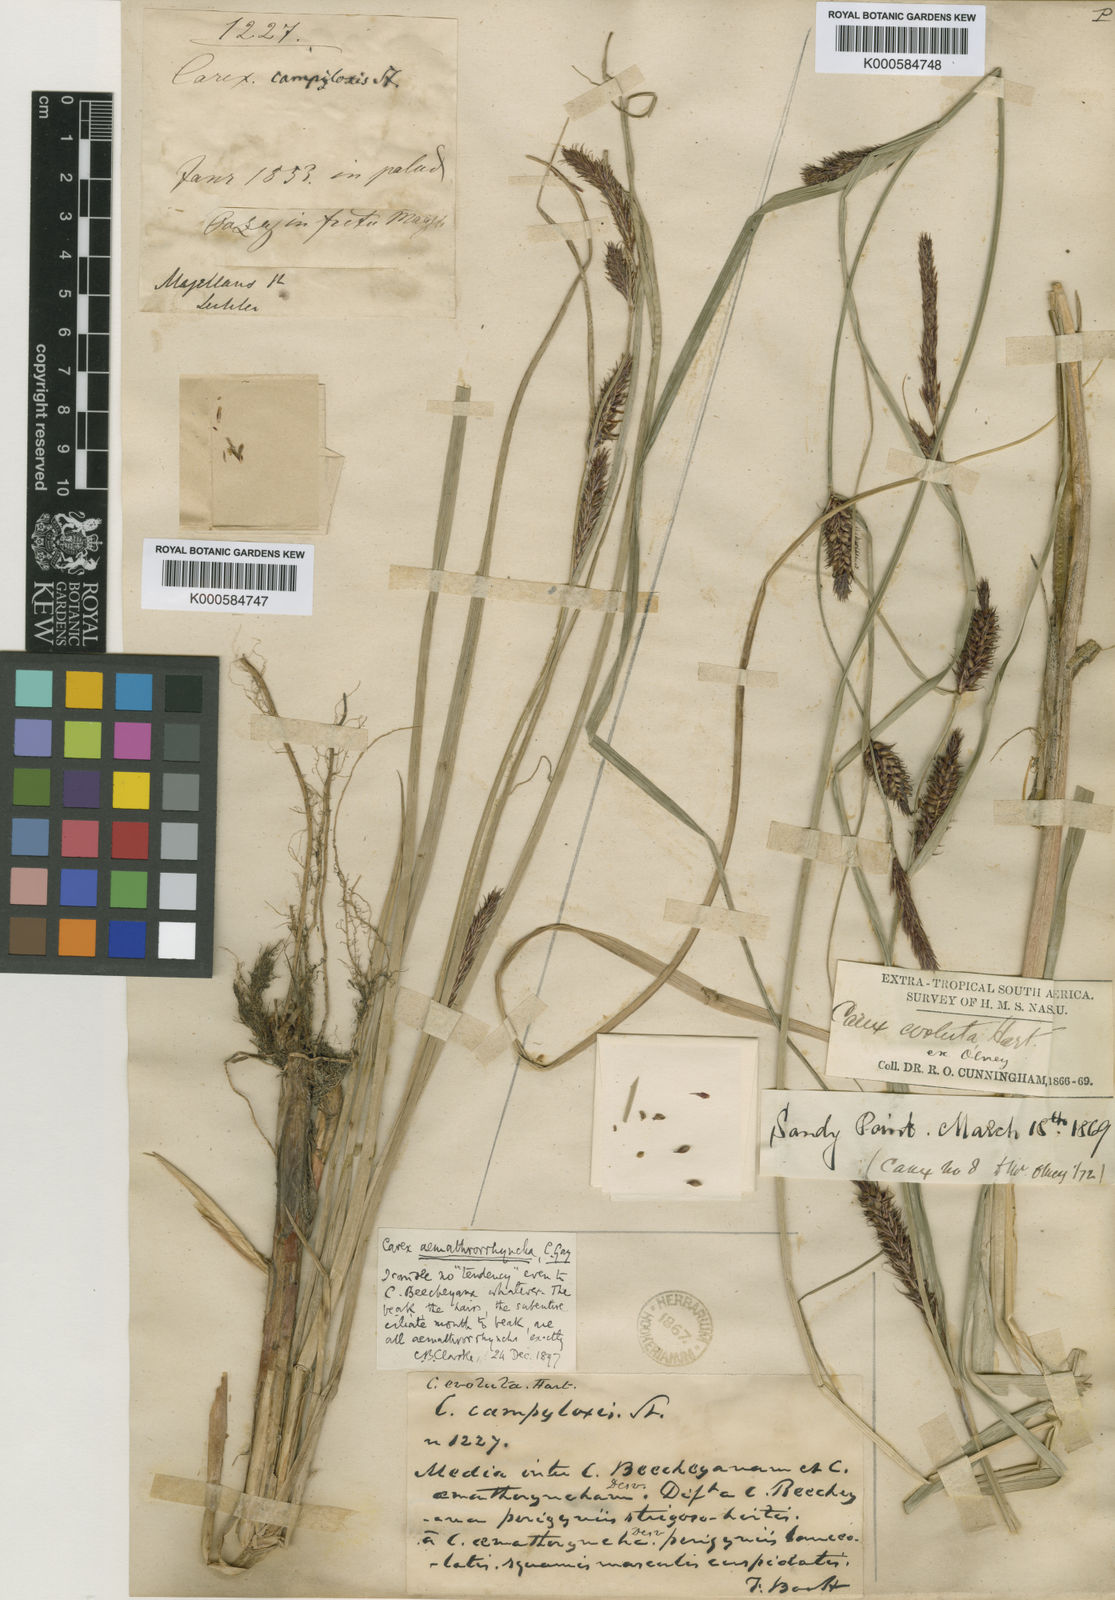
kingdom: Plantae
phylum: Tracheophyta
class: Liliopsida
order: Poales
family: Cyperaceae
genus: Carex
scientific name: Carex
